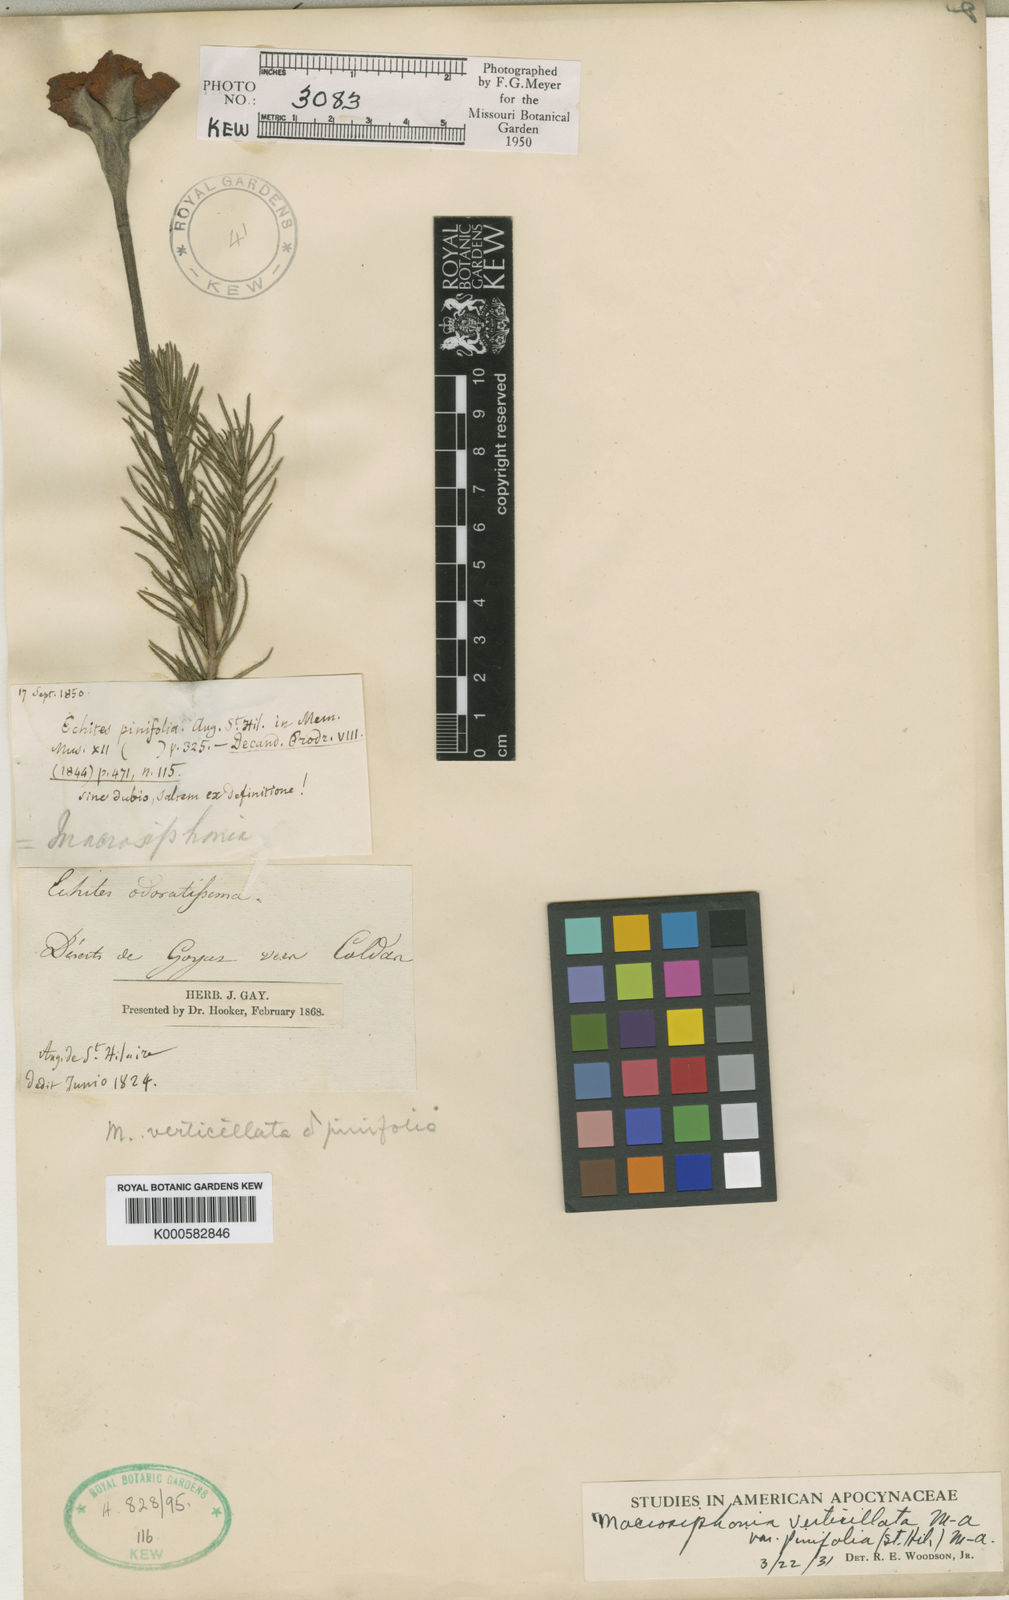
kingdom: Plantae
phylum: Tracheophyta
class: Magnoliopsida
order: Gentianales
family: Apocynaceae
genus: Mandevilla
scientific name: Mandevilla petraea
